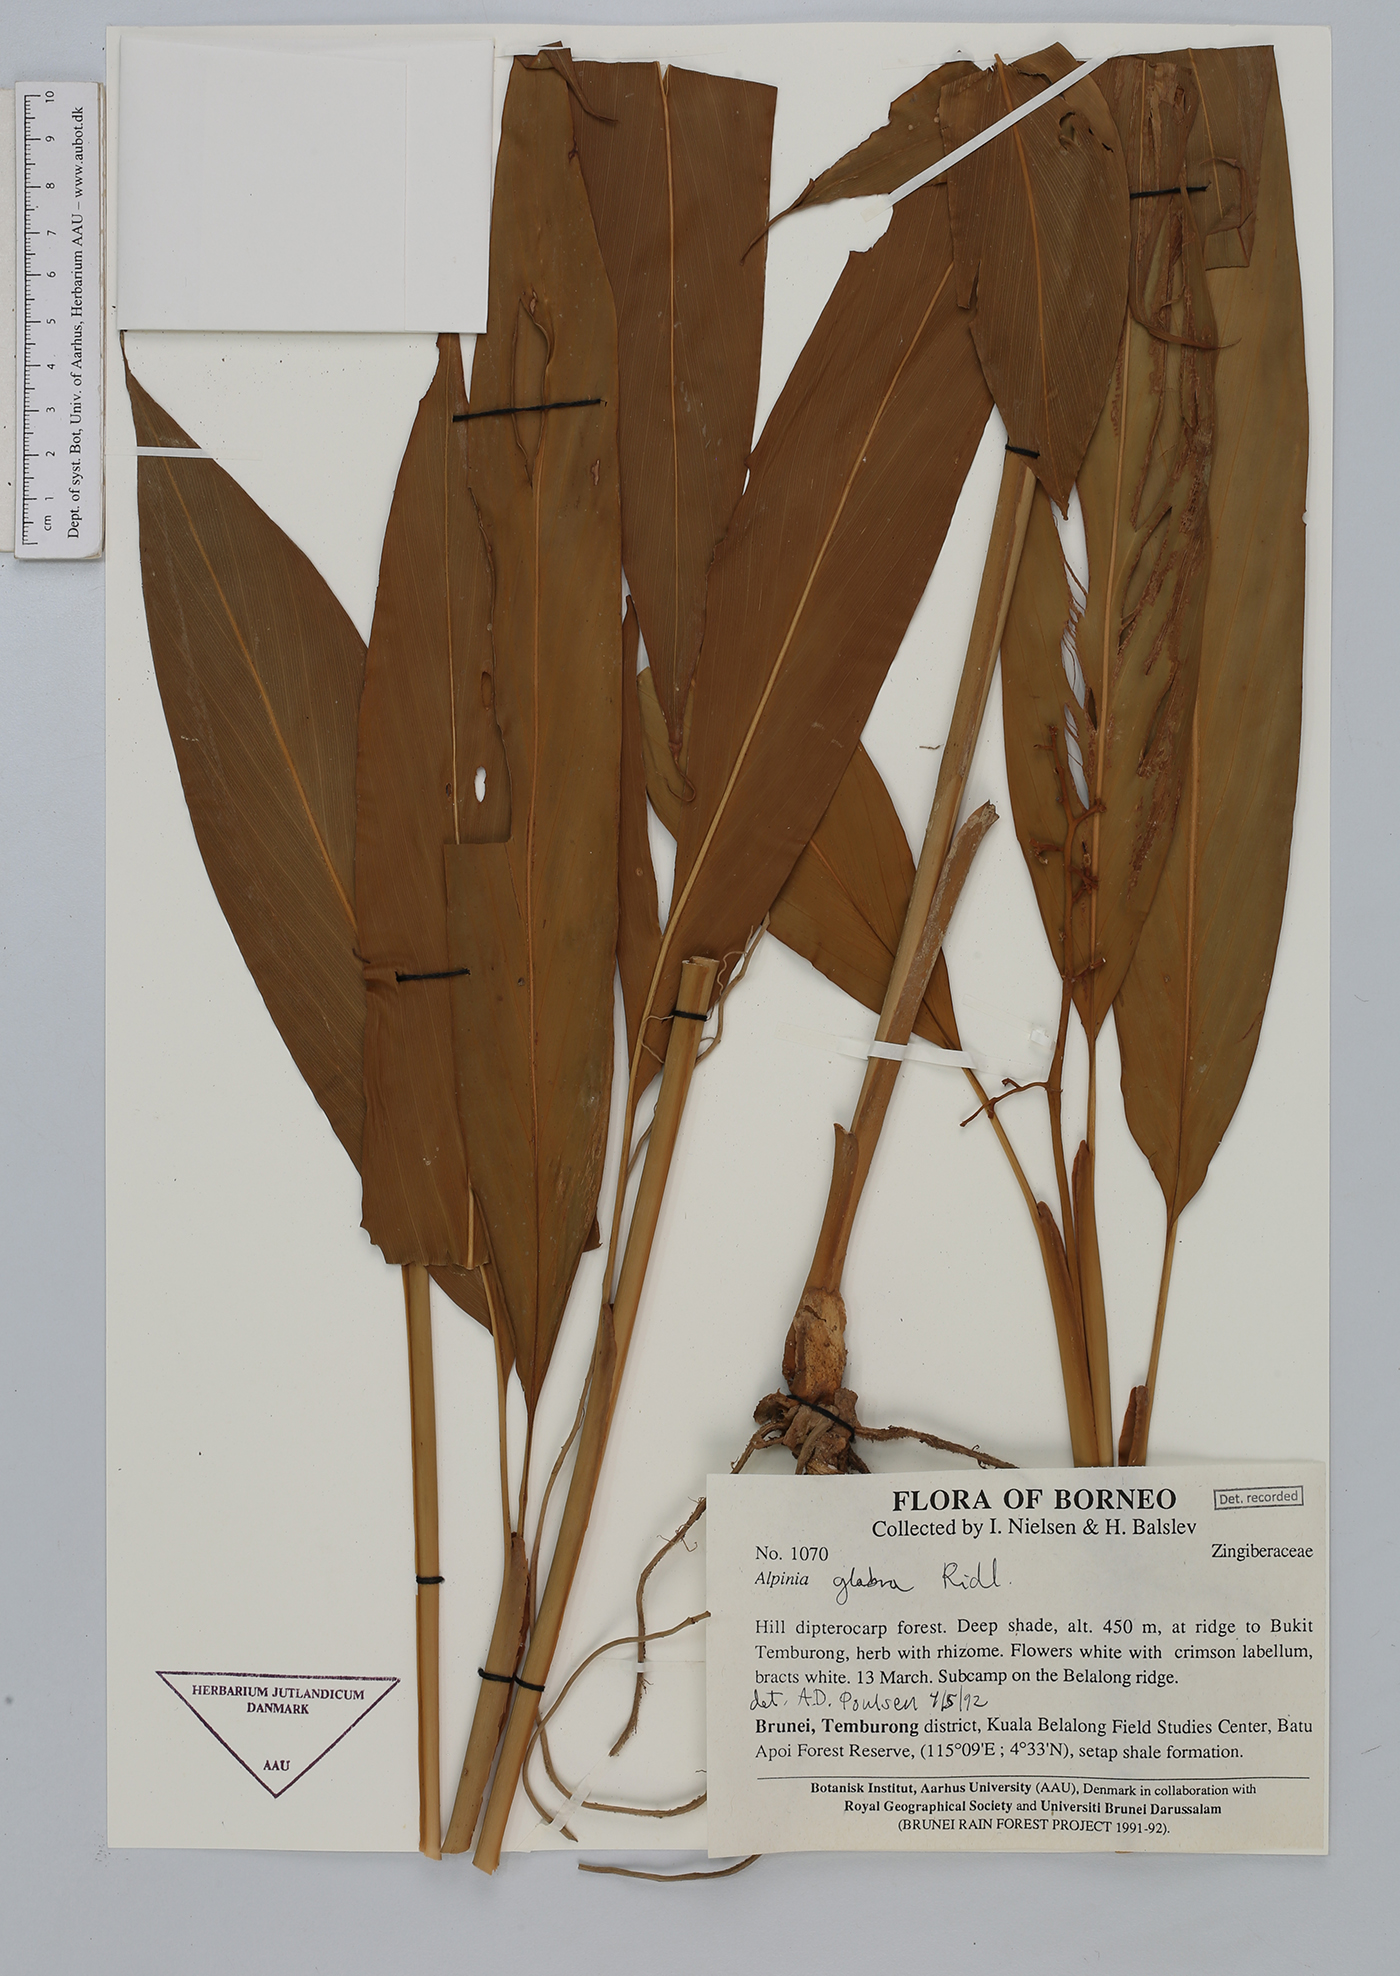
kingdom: Plantae
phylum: Tracheophyta
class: Liliopsida
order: Zingiberales
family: Zingiberaceae
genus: Alpinia
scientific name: Alpinia glabra
